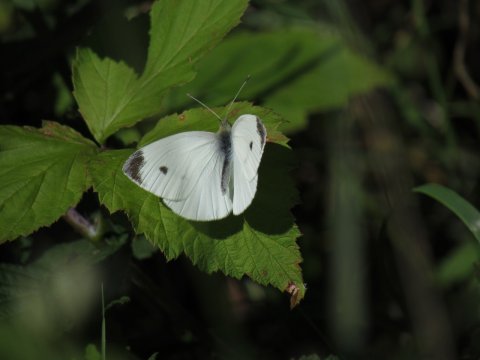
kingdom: Animalia
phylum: Arthropoda
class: Insecta
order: Lepidoptera
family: Pieridae
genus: Pieris
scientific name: Pieris rapae
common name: Cabbage White
